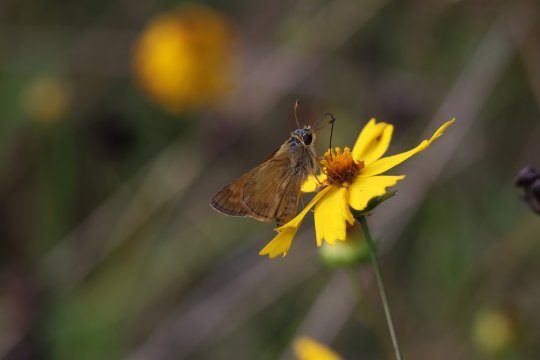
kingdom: Animalia
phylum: Arthropoda
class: Insecta
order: Lepidoptera
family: Hesperiidae
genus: Atalopedes
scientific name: Atalopedes campestris
